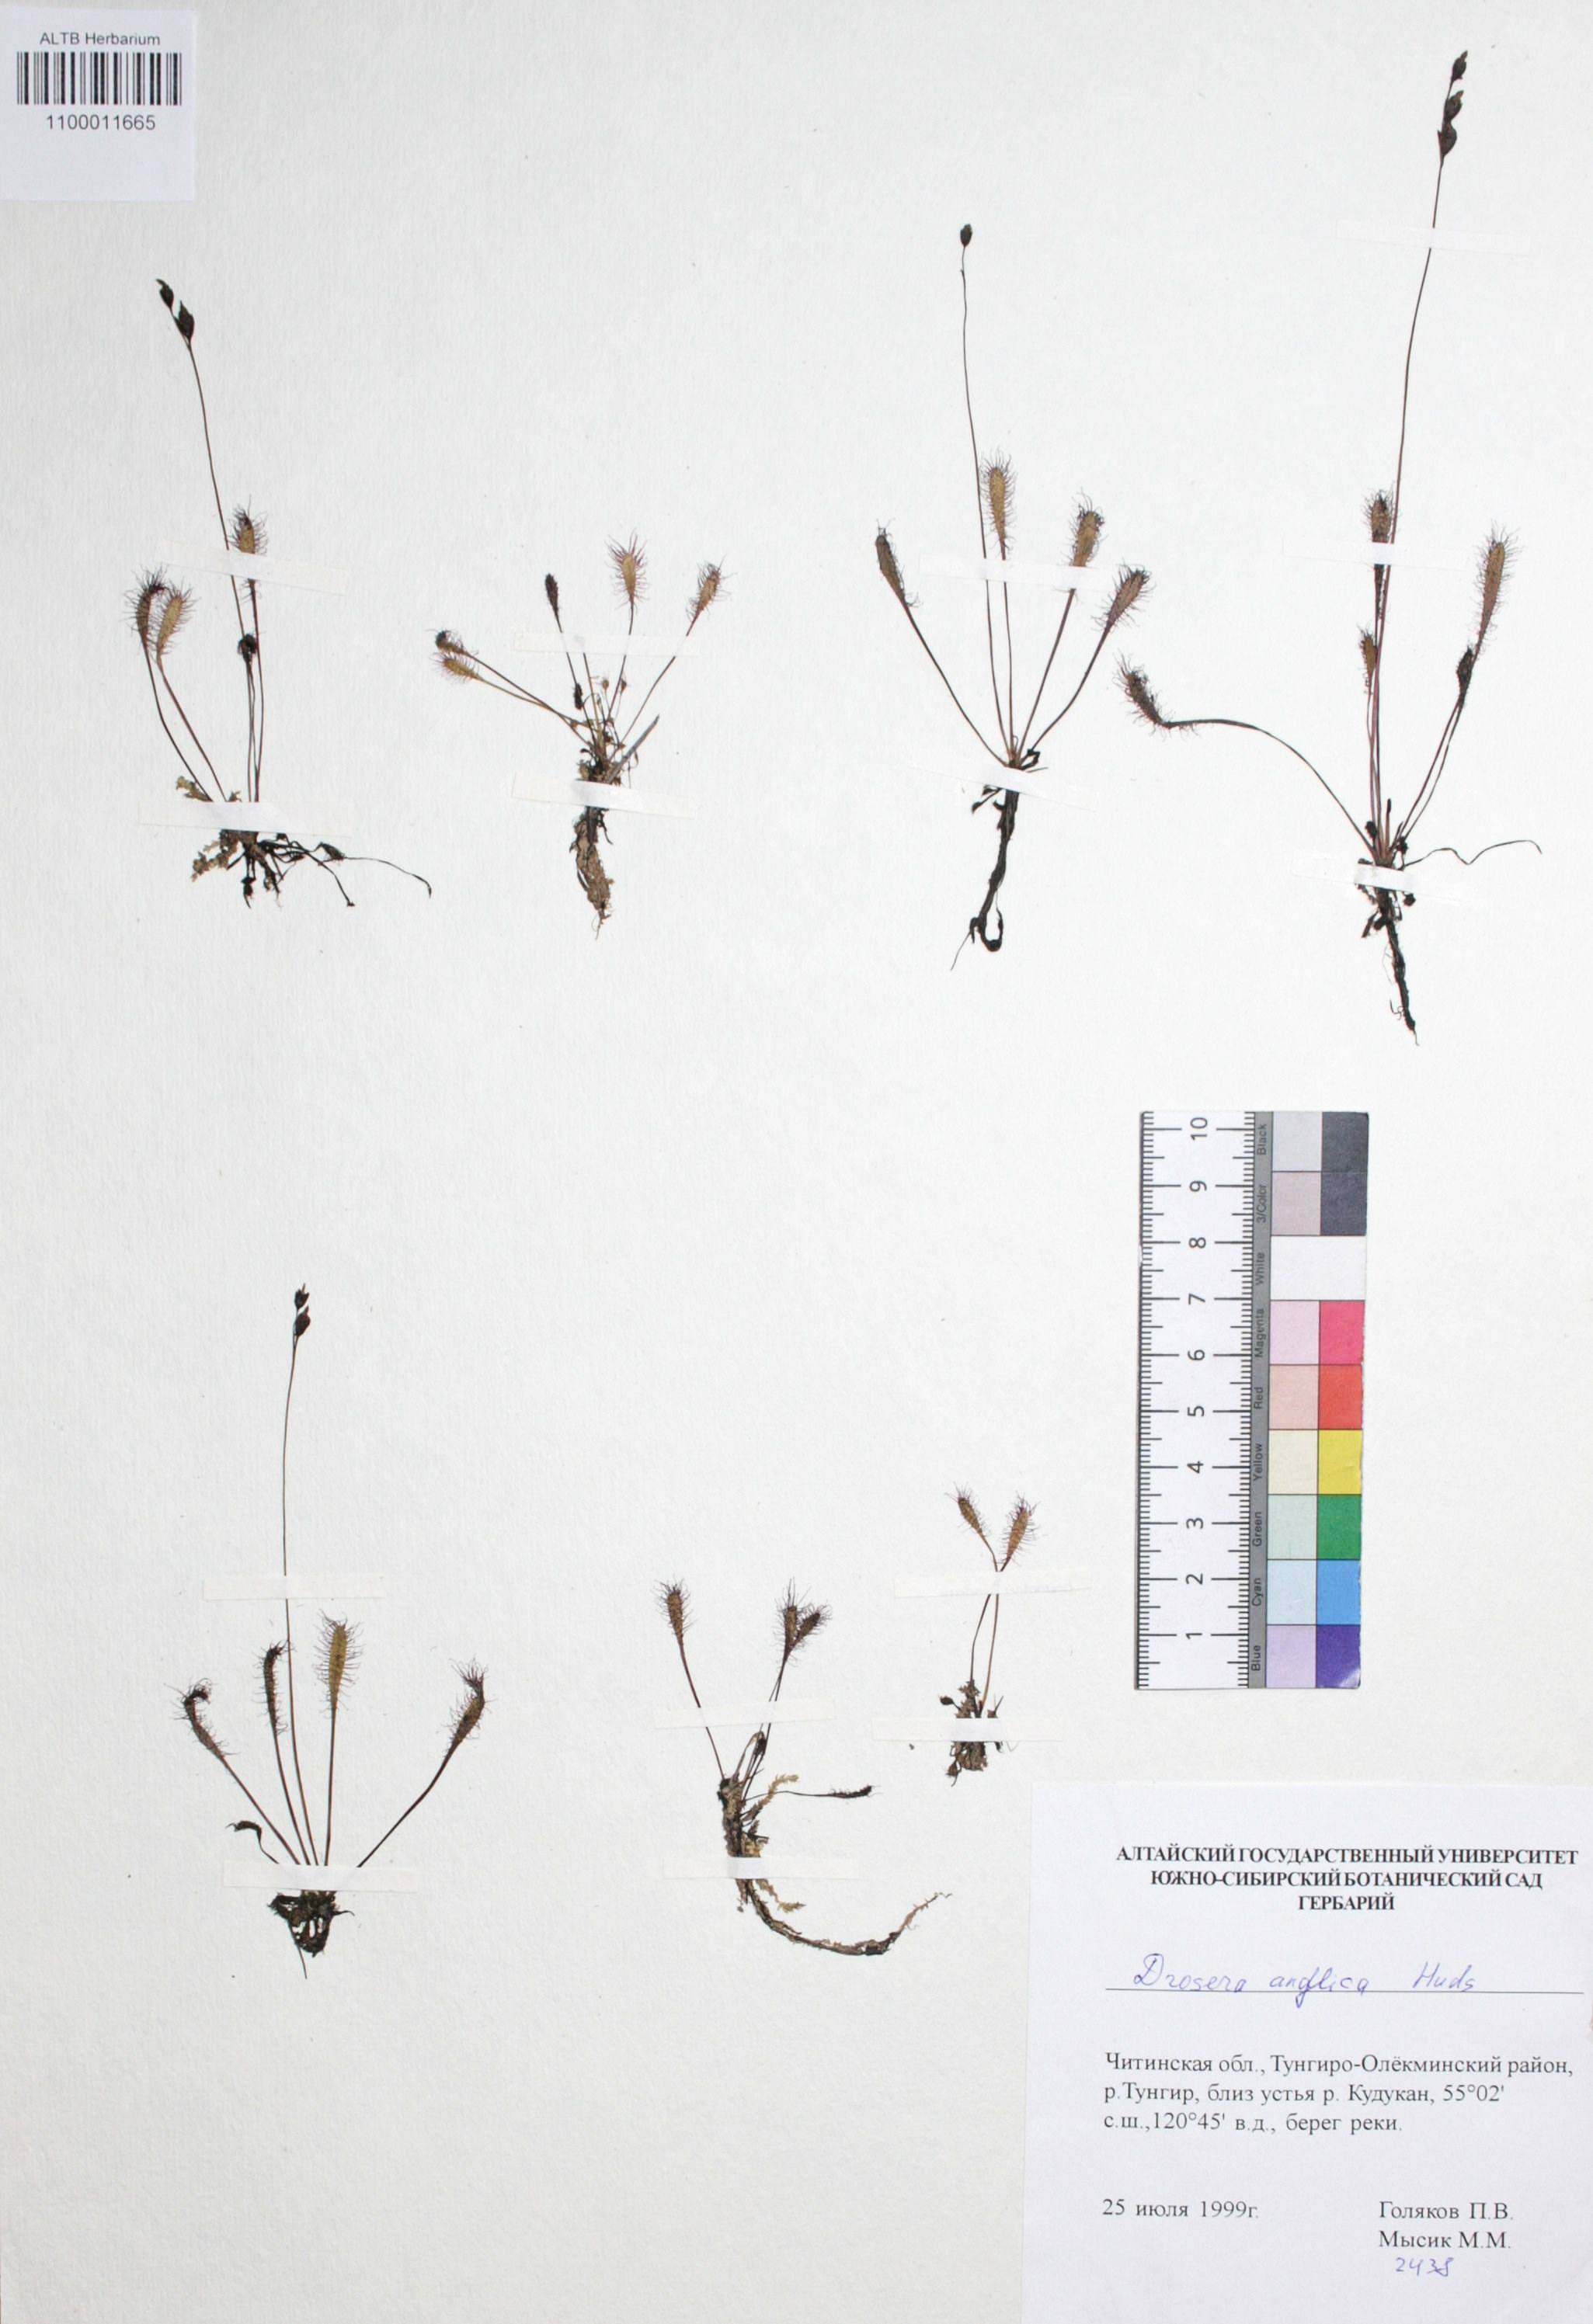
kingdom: Plantae
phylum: Tracheophyta
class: Magnoliopsida
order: Caryophyllales
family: Droseraceae
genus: Drosera
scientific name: Drosera anglica
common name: Great sundew
